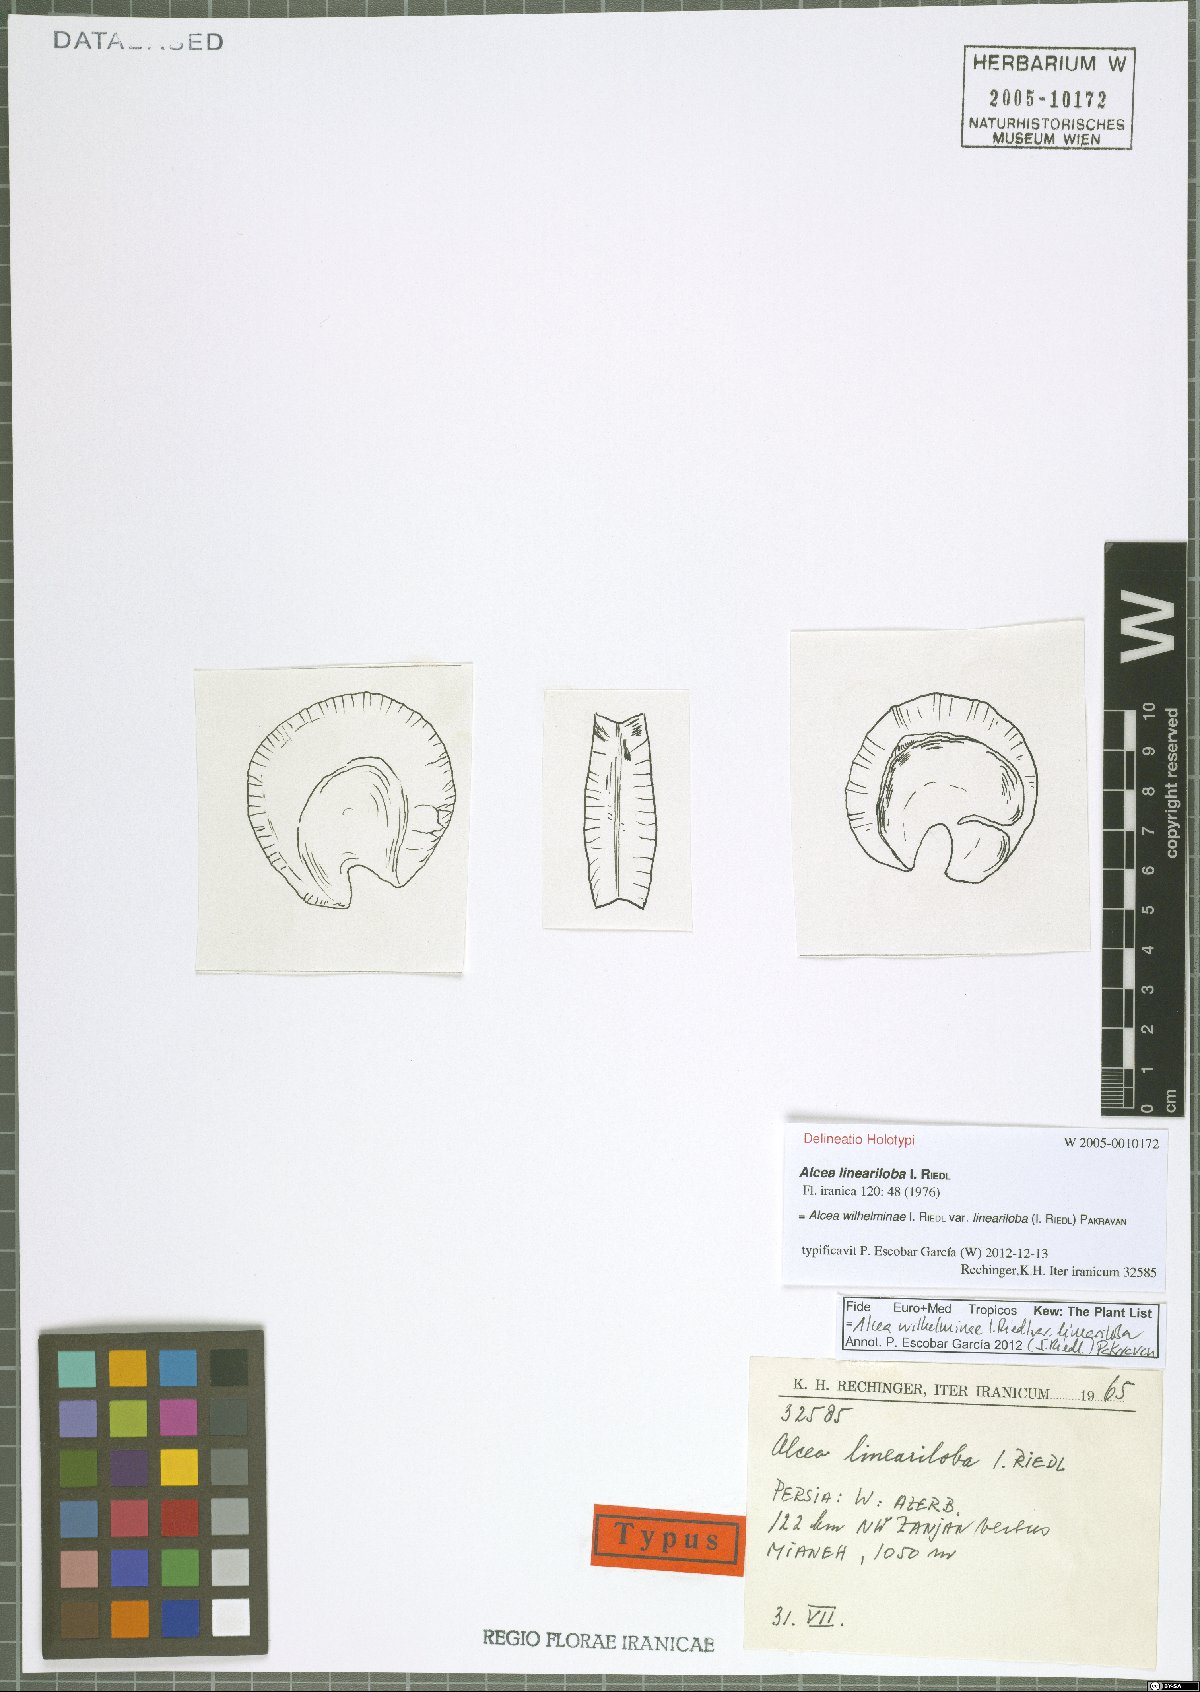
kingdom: Plantae
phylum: Tracheophyta
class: Magnoliopsida
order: Malvales
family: Malvaceae
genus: Alcea
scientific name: Alcea wilhelminae
